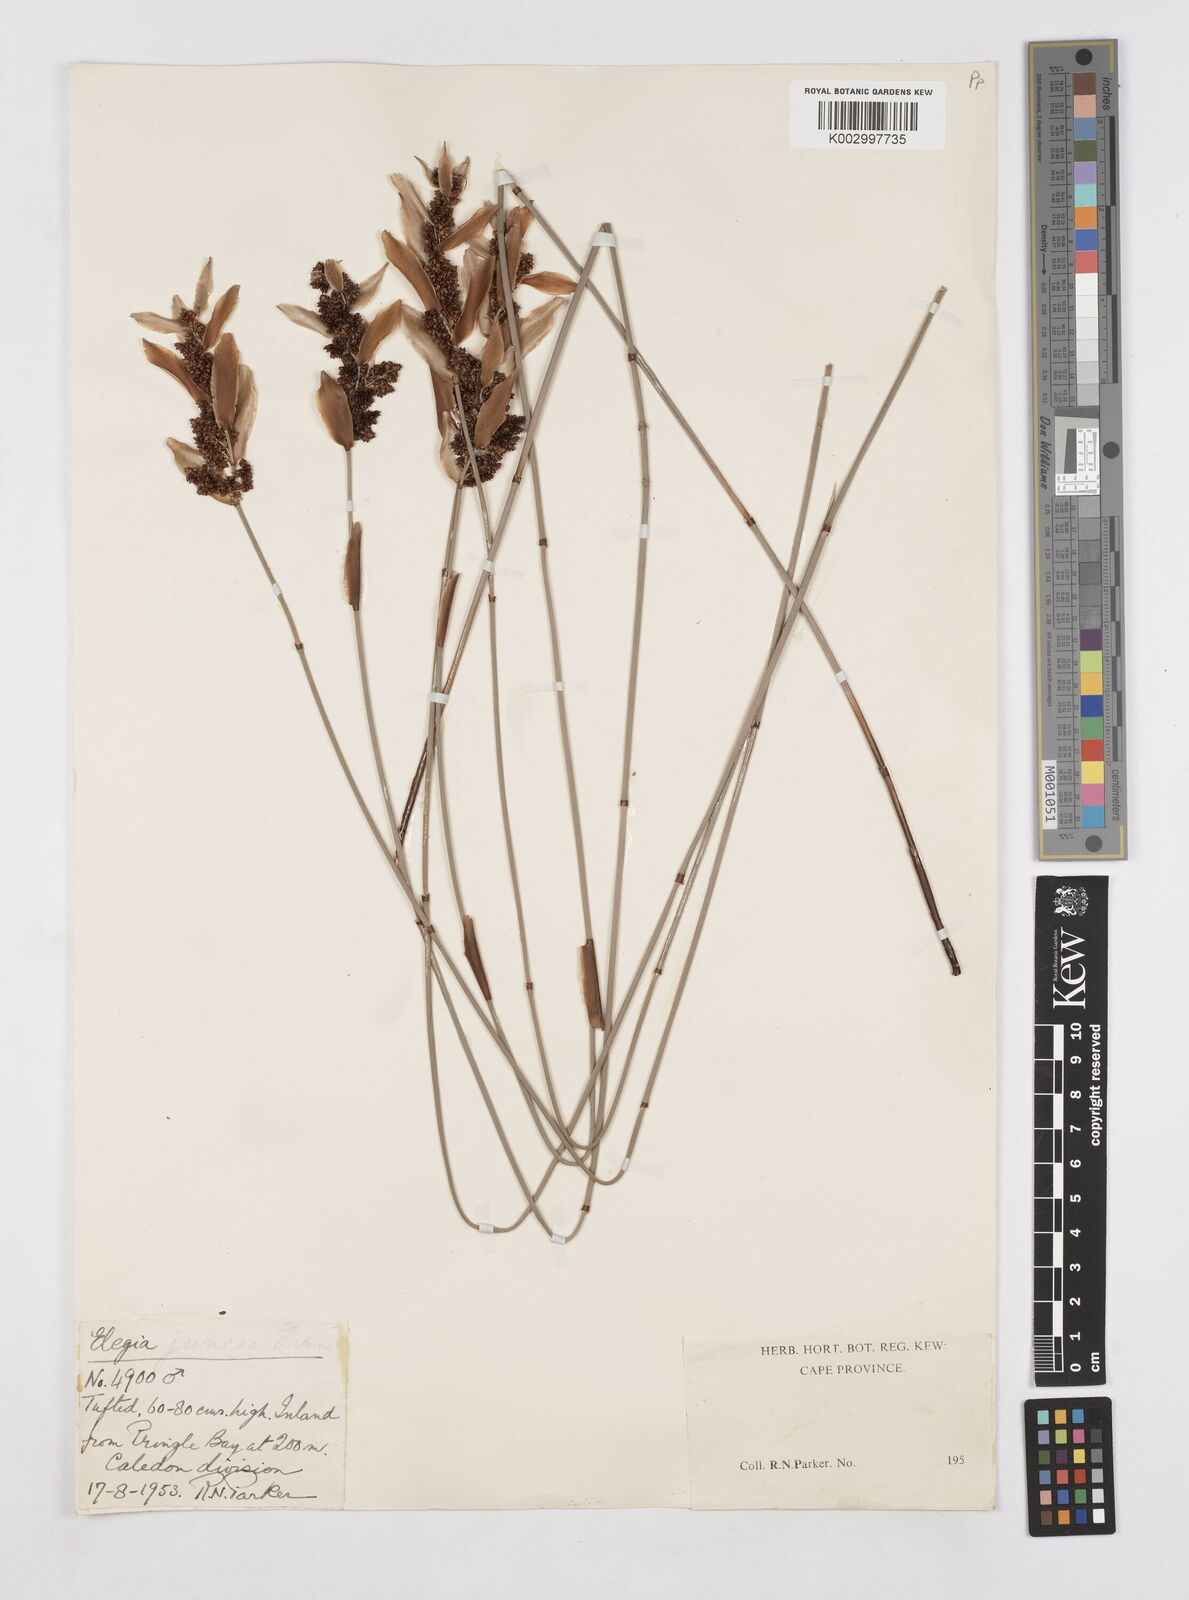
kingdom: Plantae
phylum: Tracheophyta
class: Liliopsida
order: Poales
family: Restionaceae
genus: Elegia
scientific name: Elegia juncea
